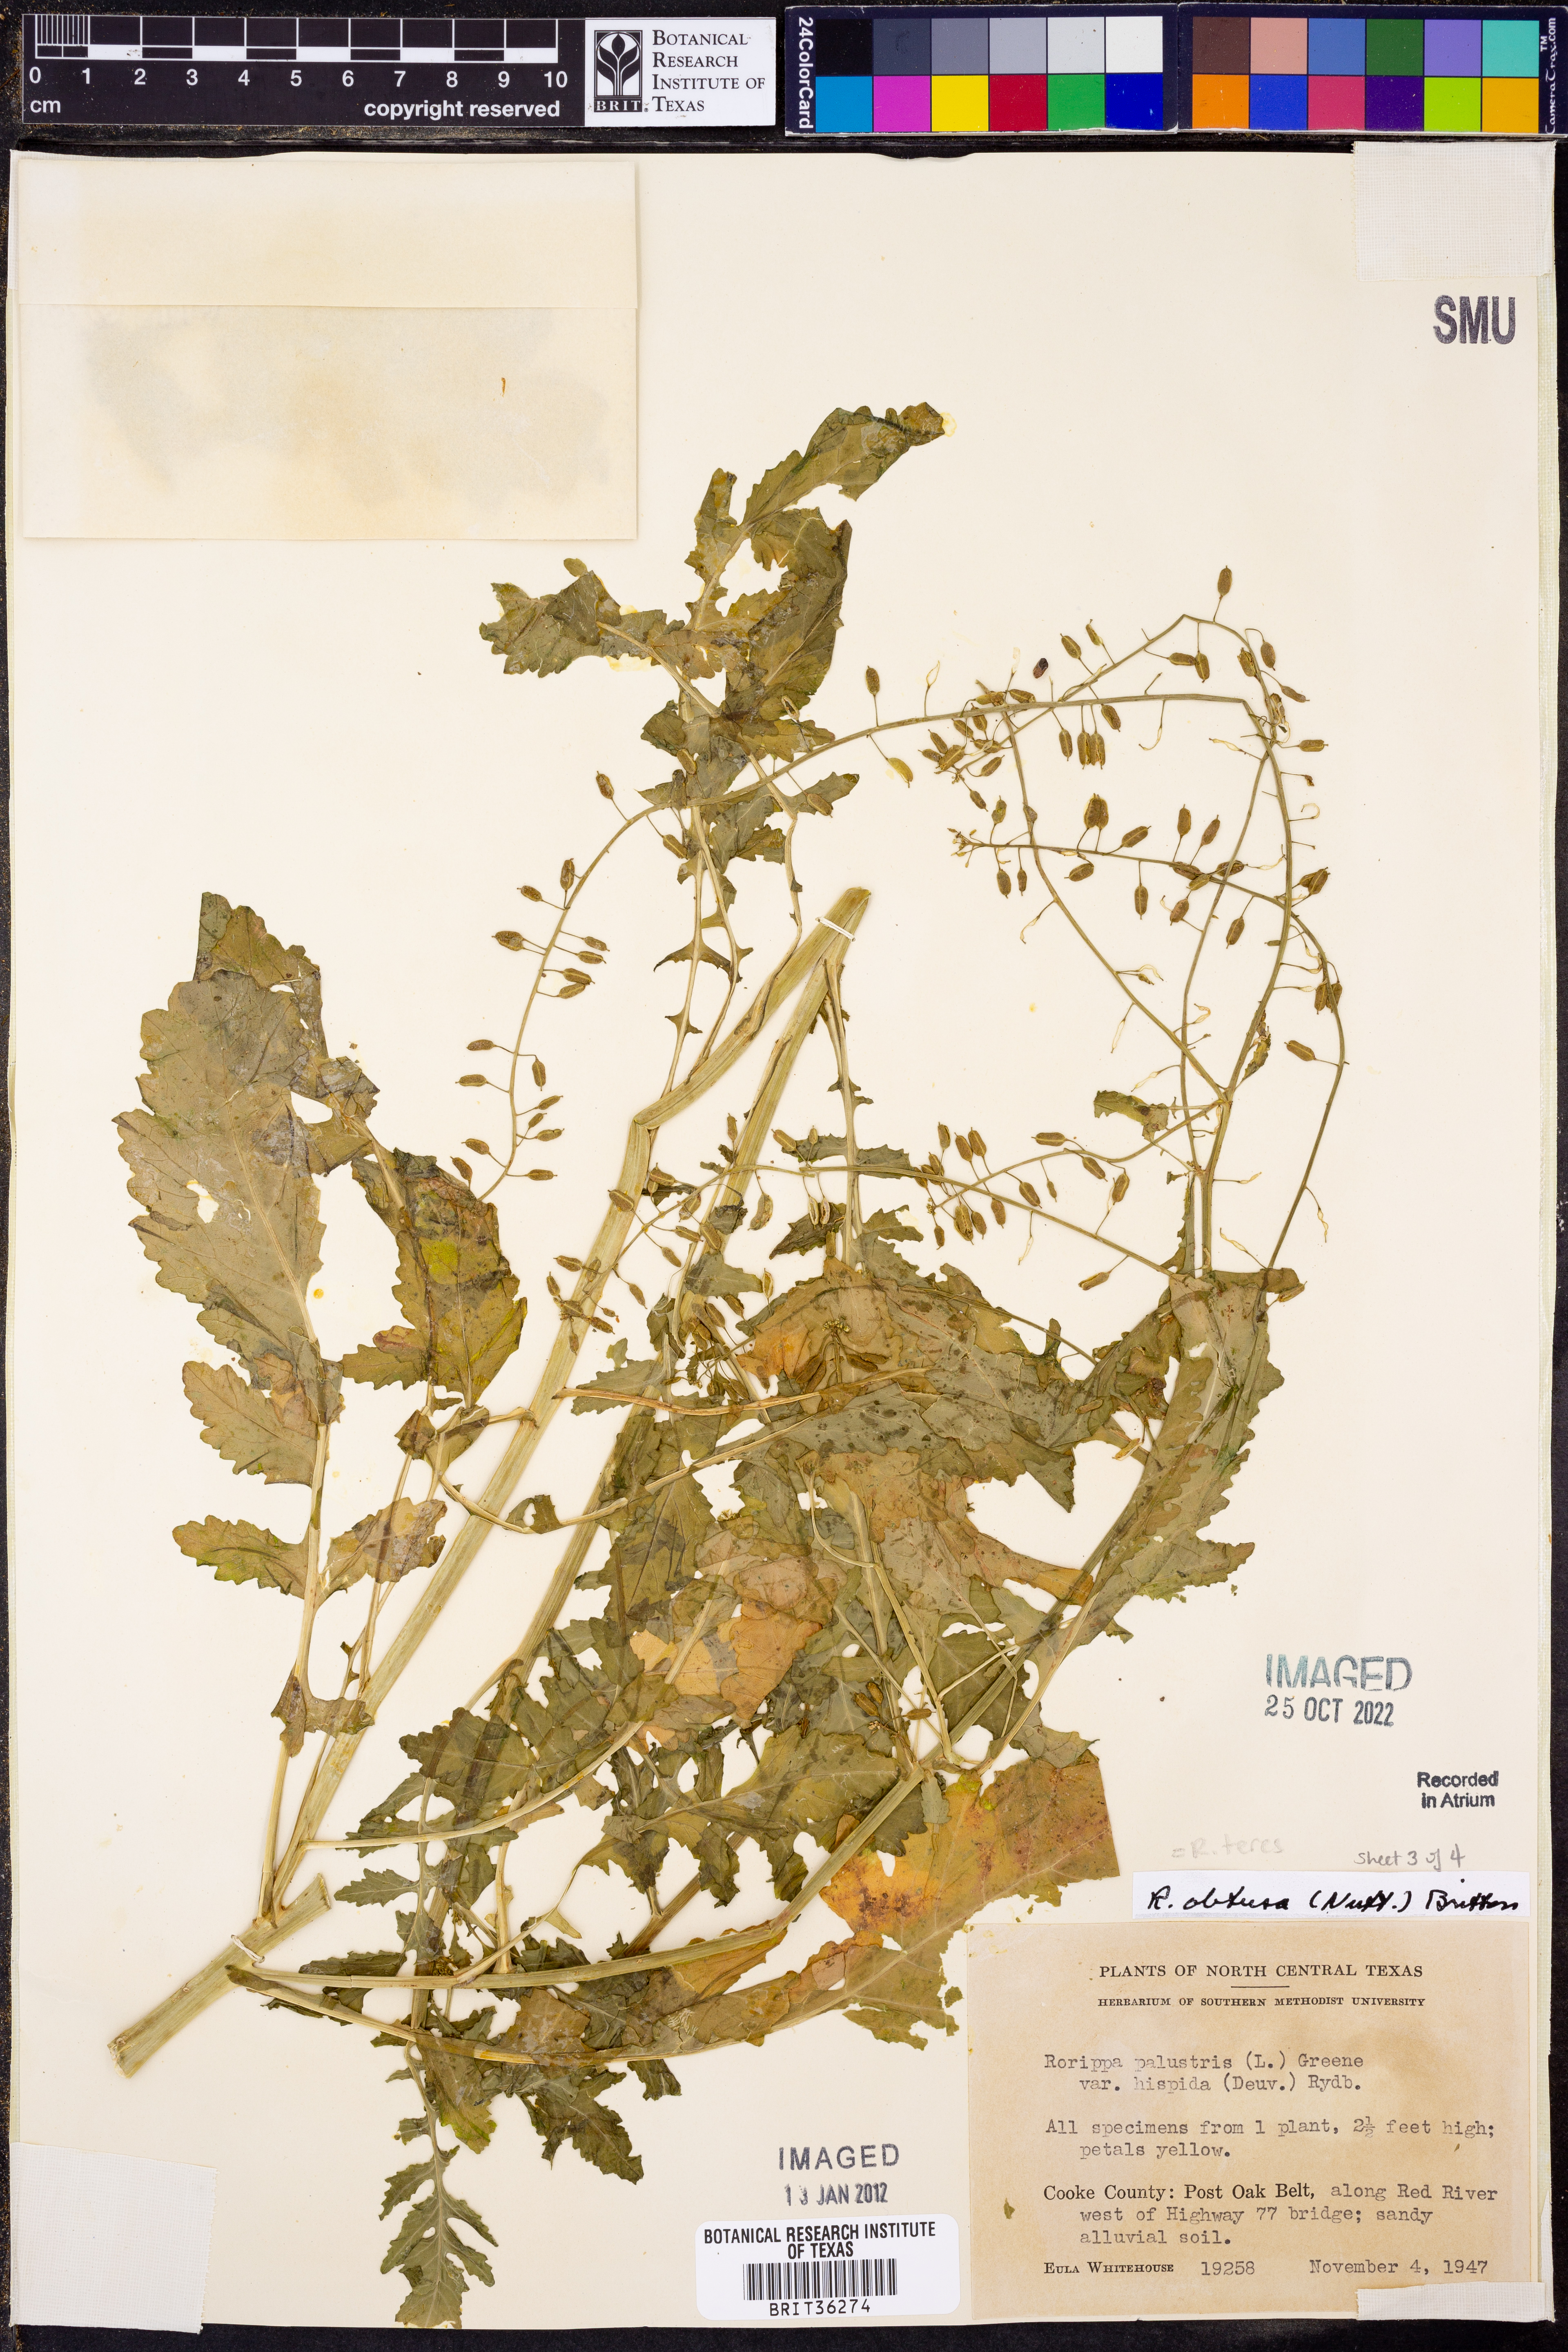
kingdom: Plantae
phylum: Tracheophyta
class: Magnoliopsida
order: Brassicales
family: Brassicaceae
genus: Rorippa
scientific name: Rorippa teres
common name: Southern marsh yellowcress
